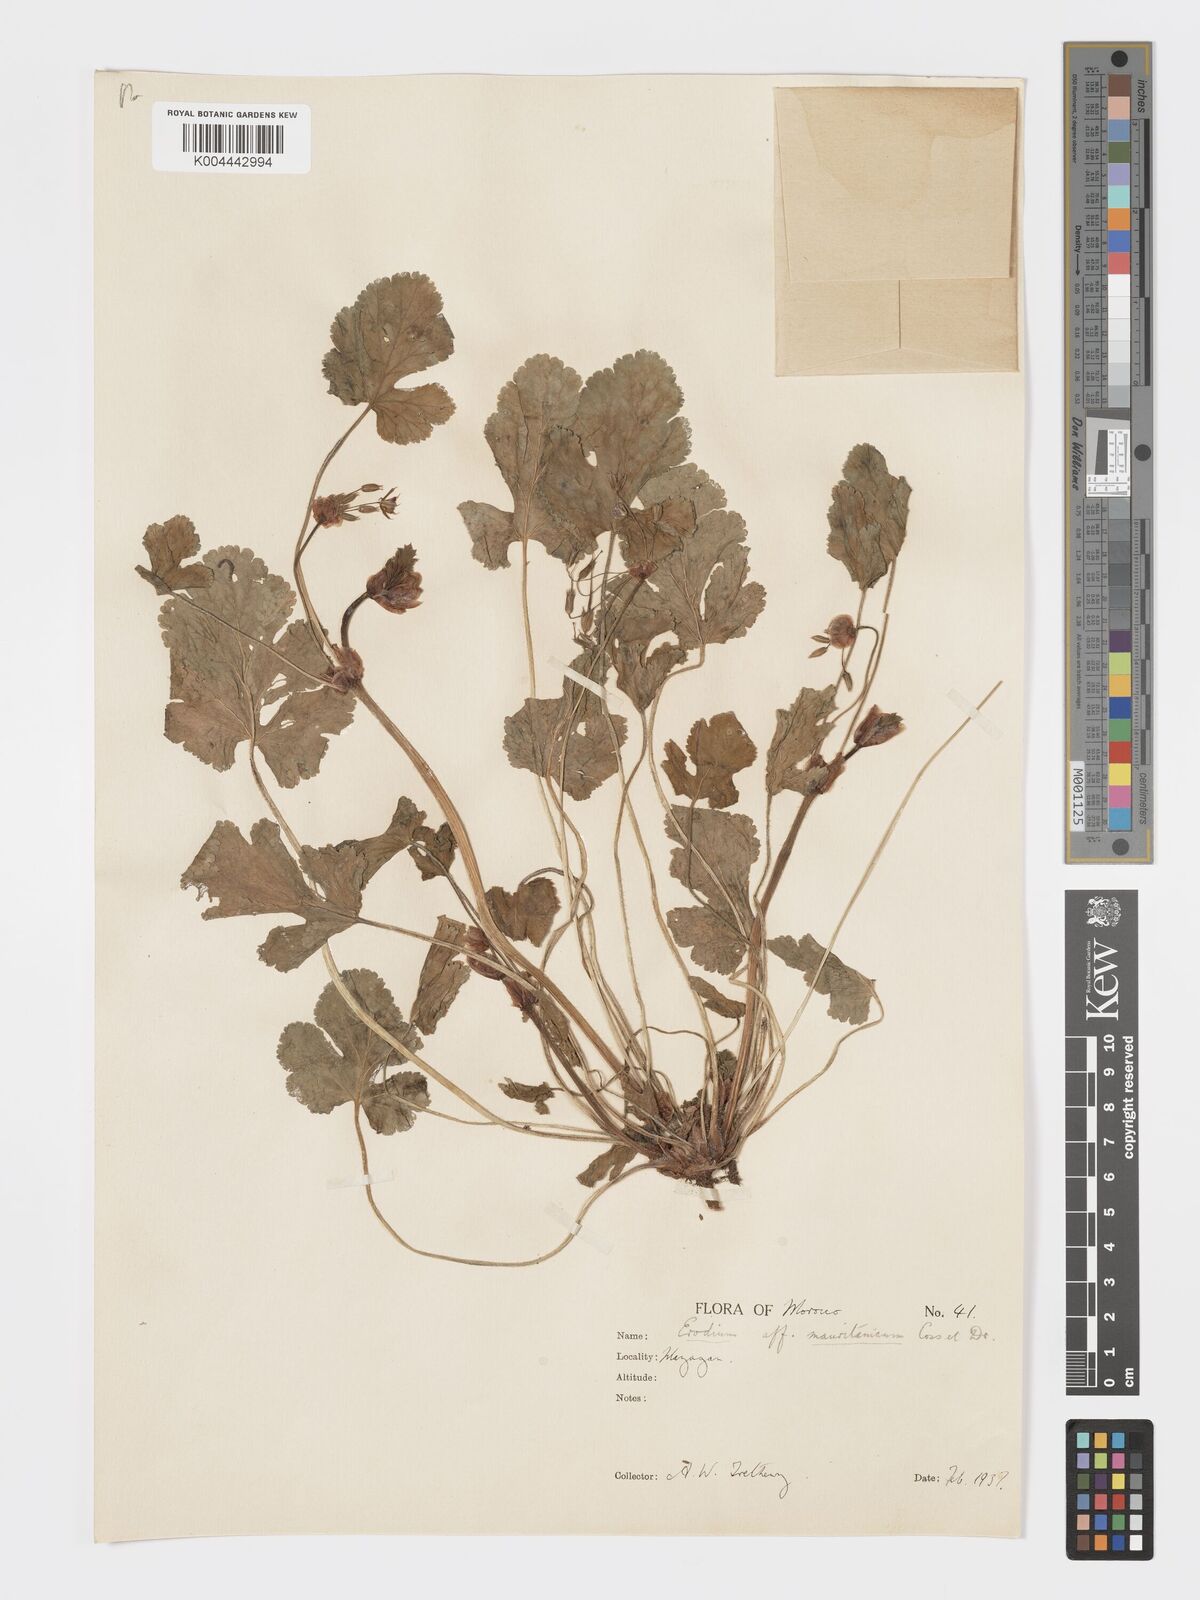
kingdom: Plantae
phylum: Tracheophyta
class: Magnoliopsida
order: Geraniales
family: Geraniaceae
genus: Erodium
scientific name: Erodium
